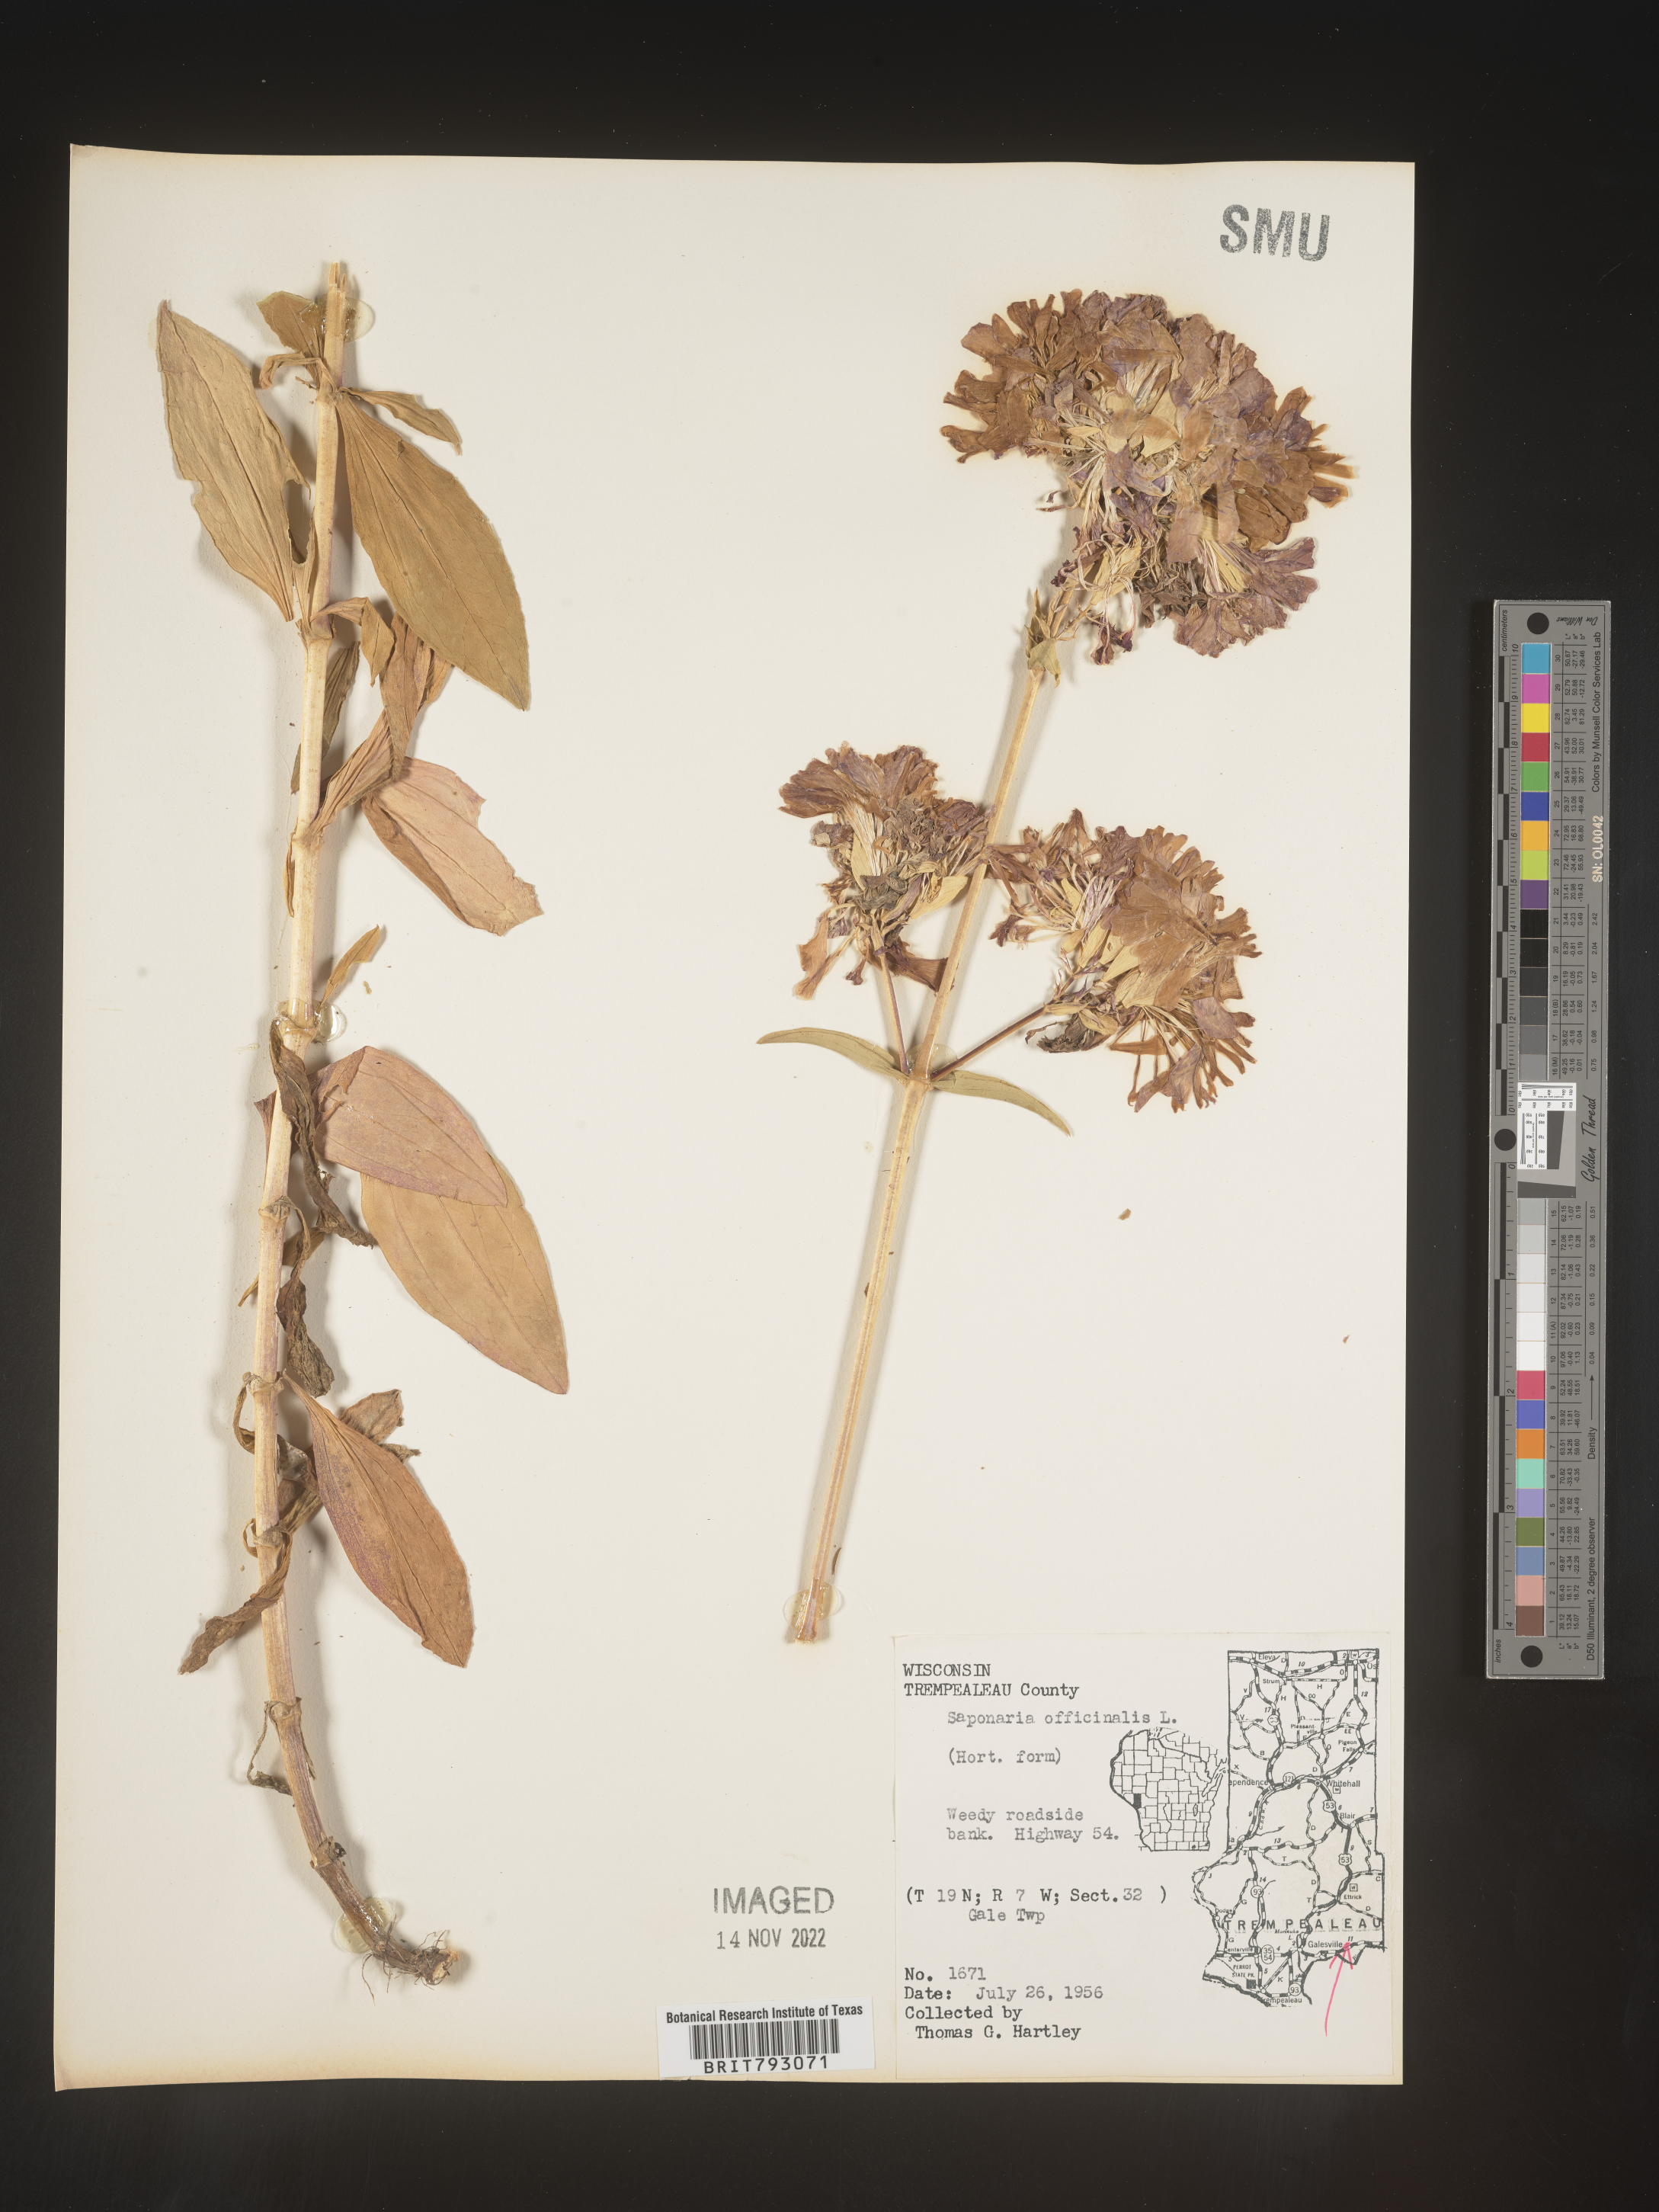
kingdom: Plantae
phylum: Tracheophyta
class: Magnoliopsida
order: Caryophyllales
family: Caryophyllaceae
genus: Saponaria
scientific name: Saponaria officinalis
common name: Soapwort
